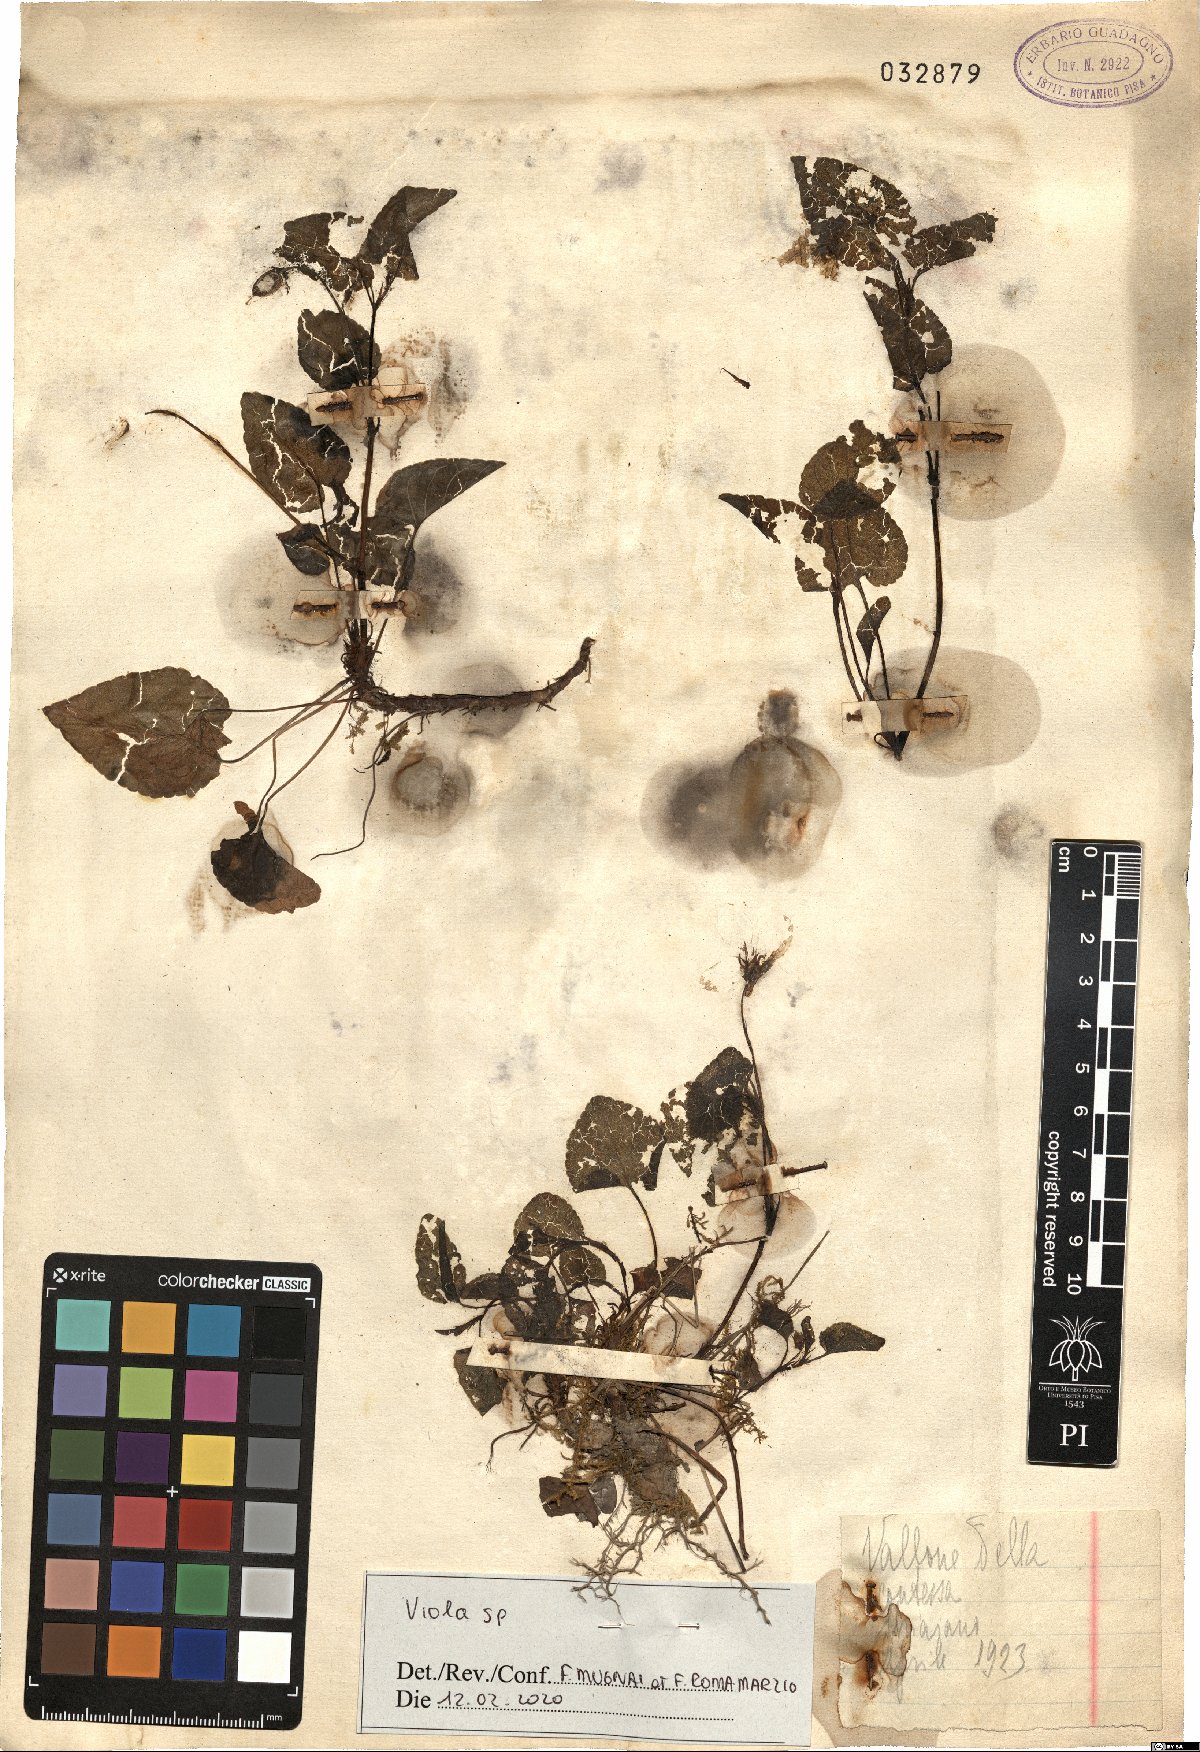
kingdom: Plantae
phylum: Tracheophyta
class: Magnoliopsida
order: Malpighiales
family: Violaceae
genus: Viola
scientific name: Viola
